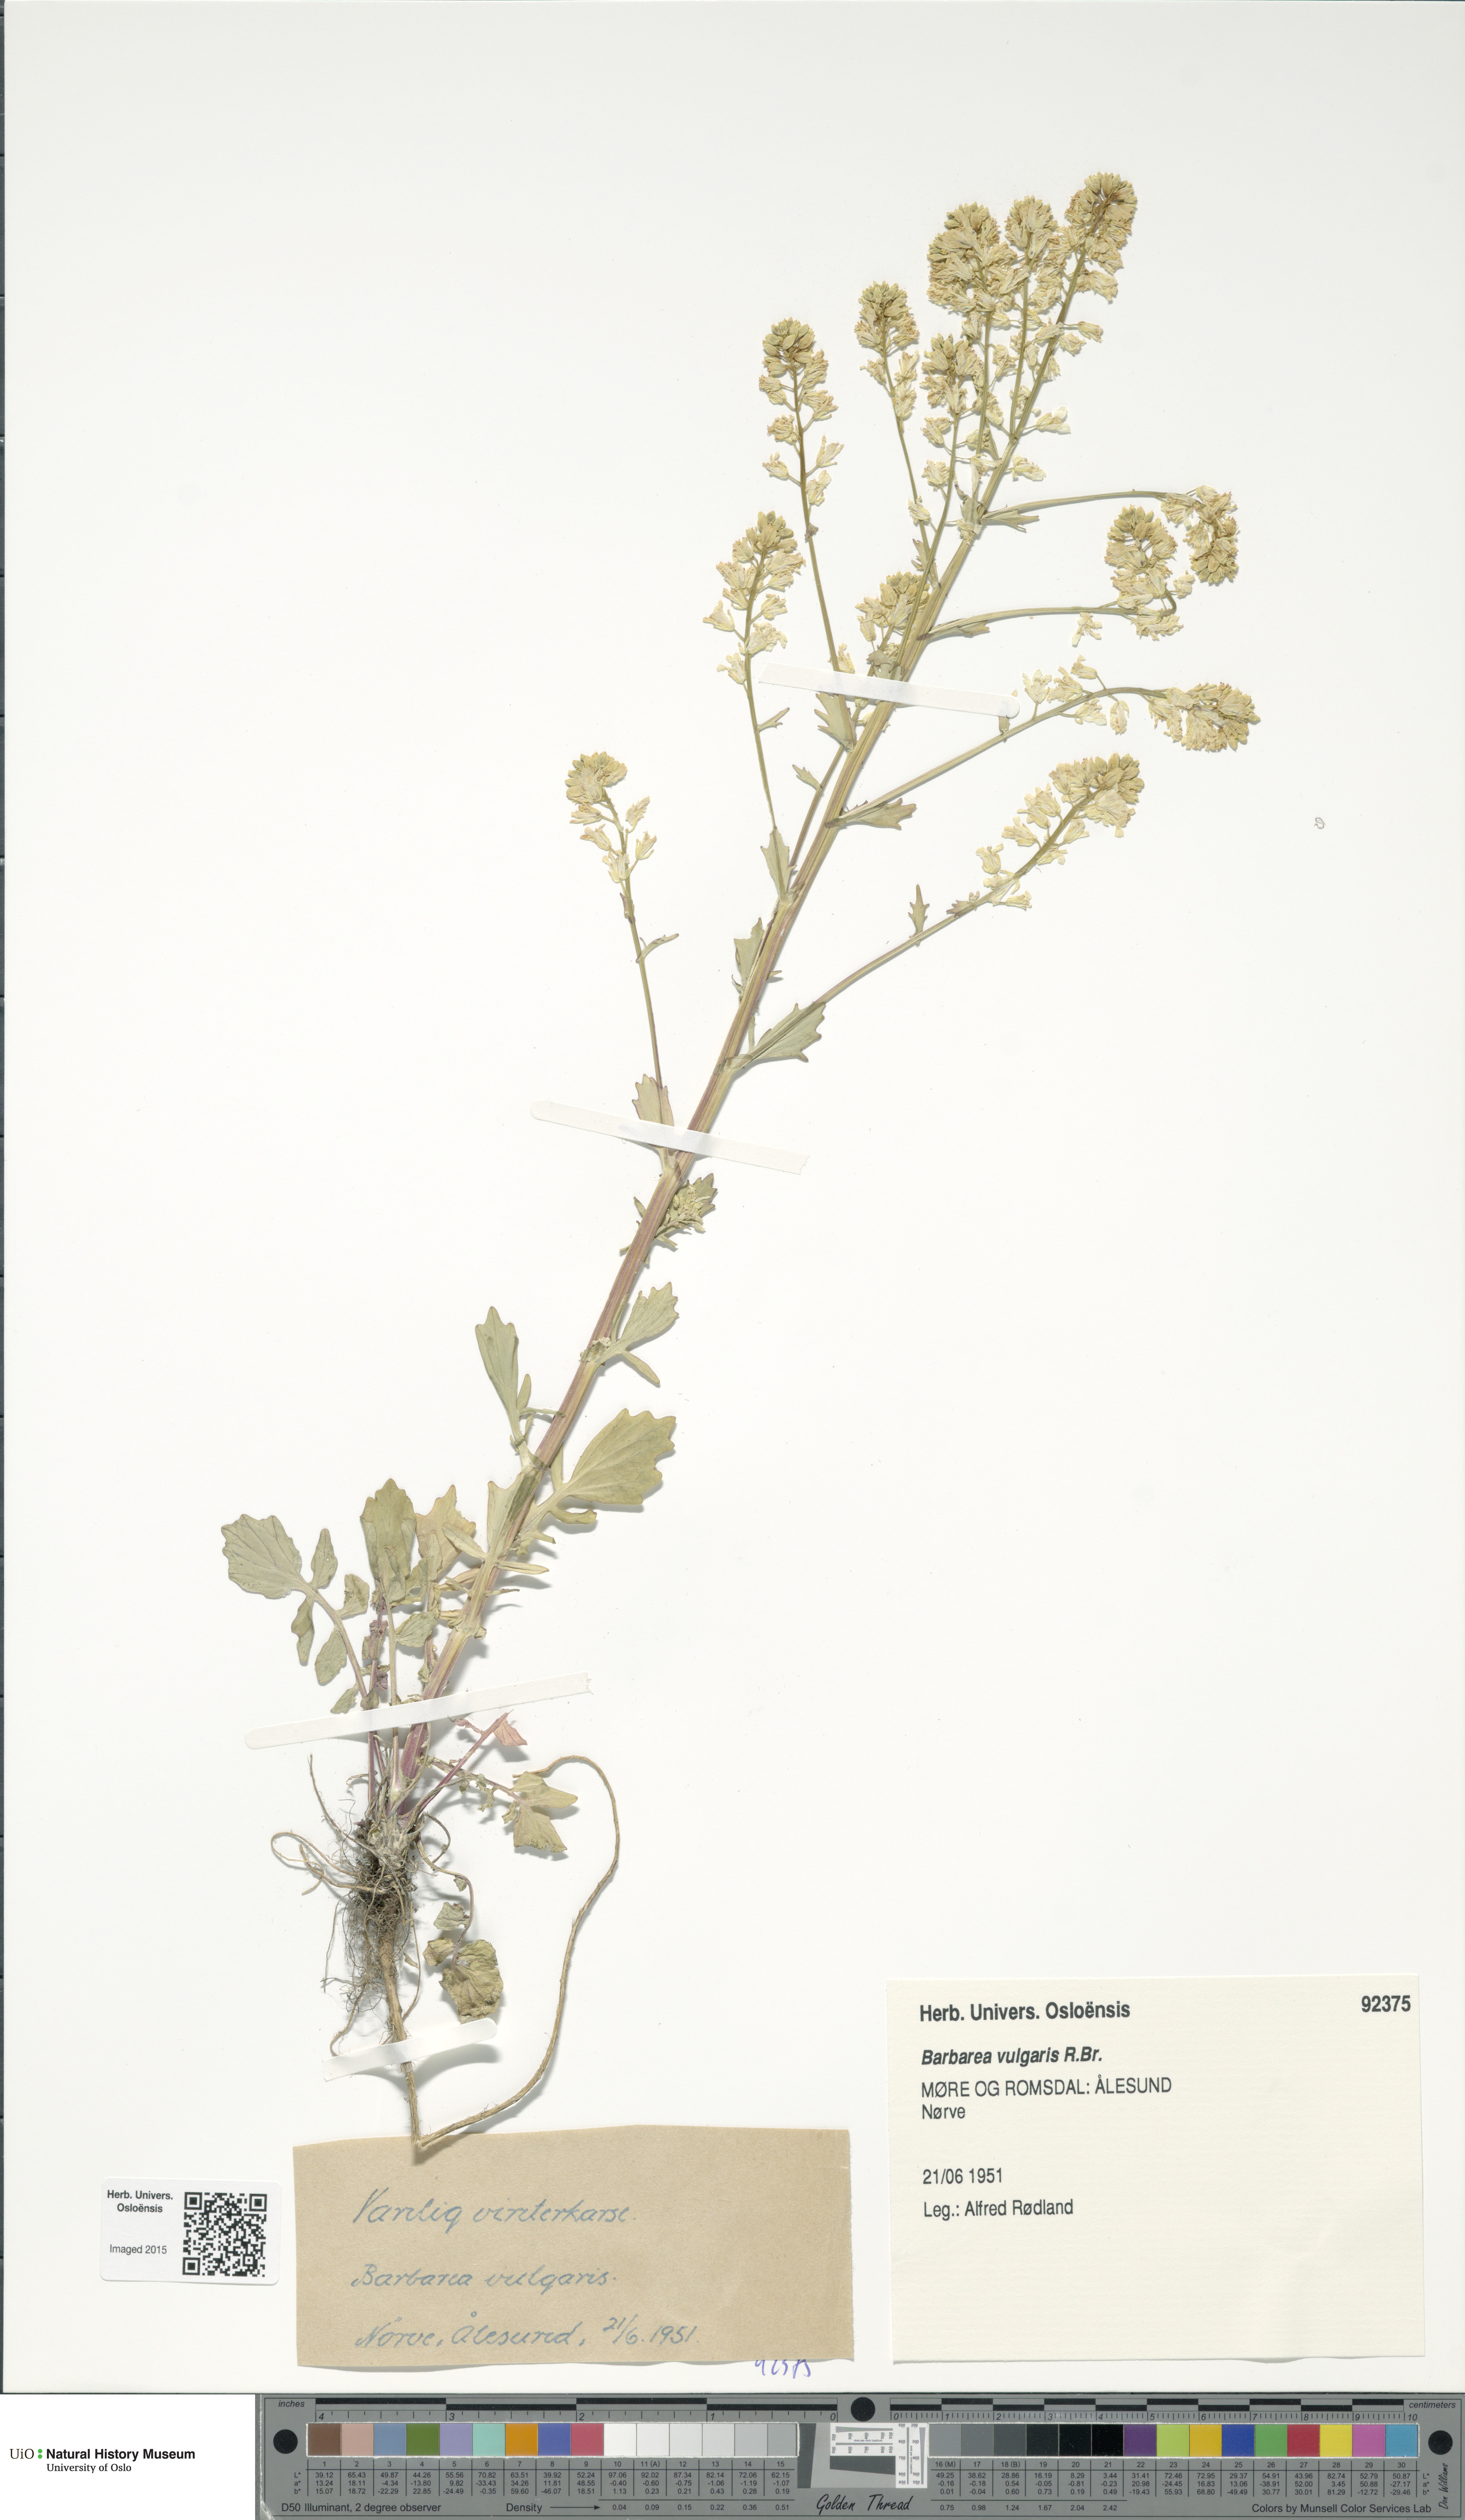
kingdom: Plantae
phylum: Tracheophyta
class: Magnoliopsida
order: Brassicales
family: Brassicaceae
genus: Barbarea
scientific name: Barbarea vulgaris
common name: Cressy-greens
